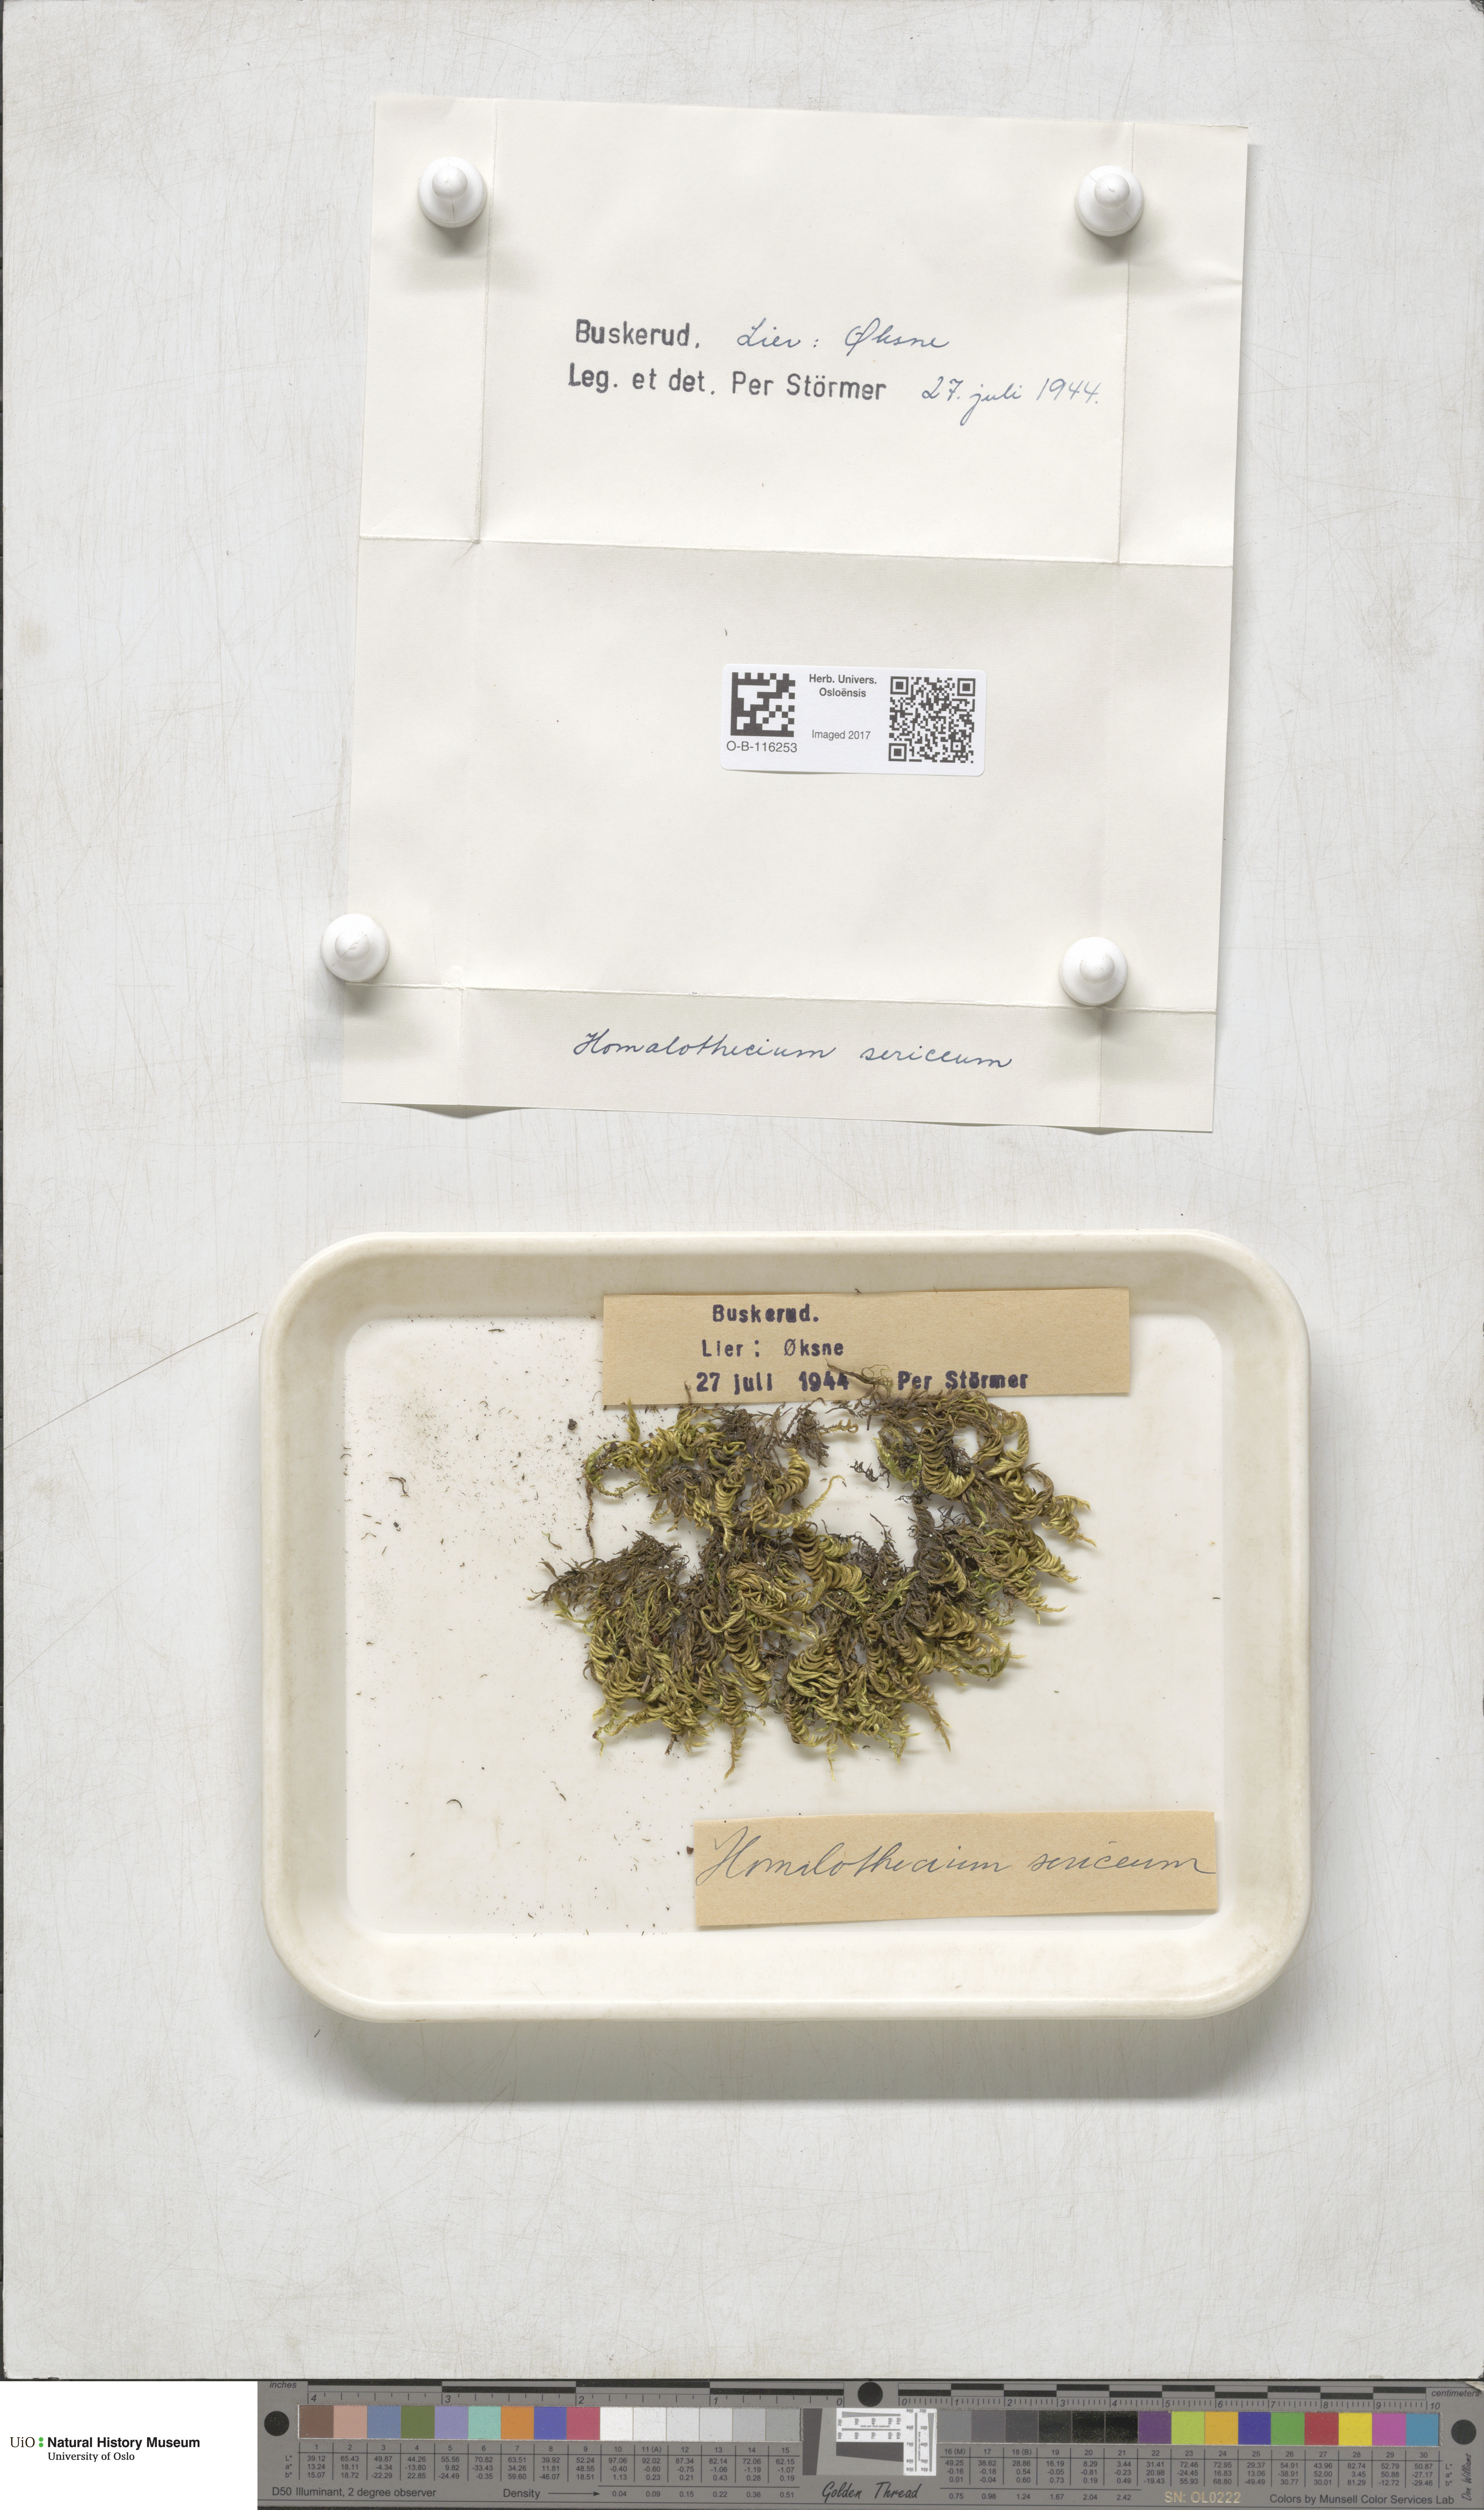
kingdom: Plantae
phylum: Bryophyta
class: Bryopsida
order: Hypnales
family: Brachytheciaceae
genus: Homalothecium
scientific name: Homalothecium sericeum
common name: Silky wall feather-moss
